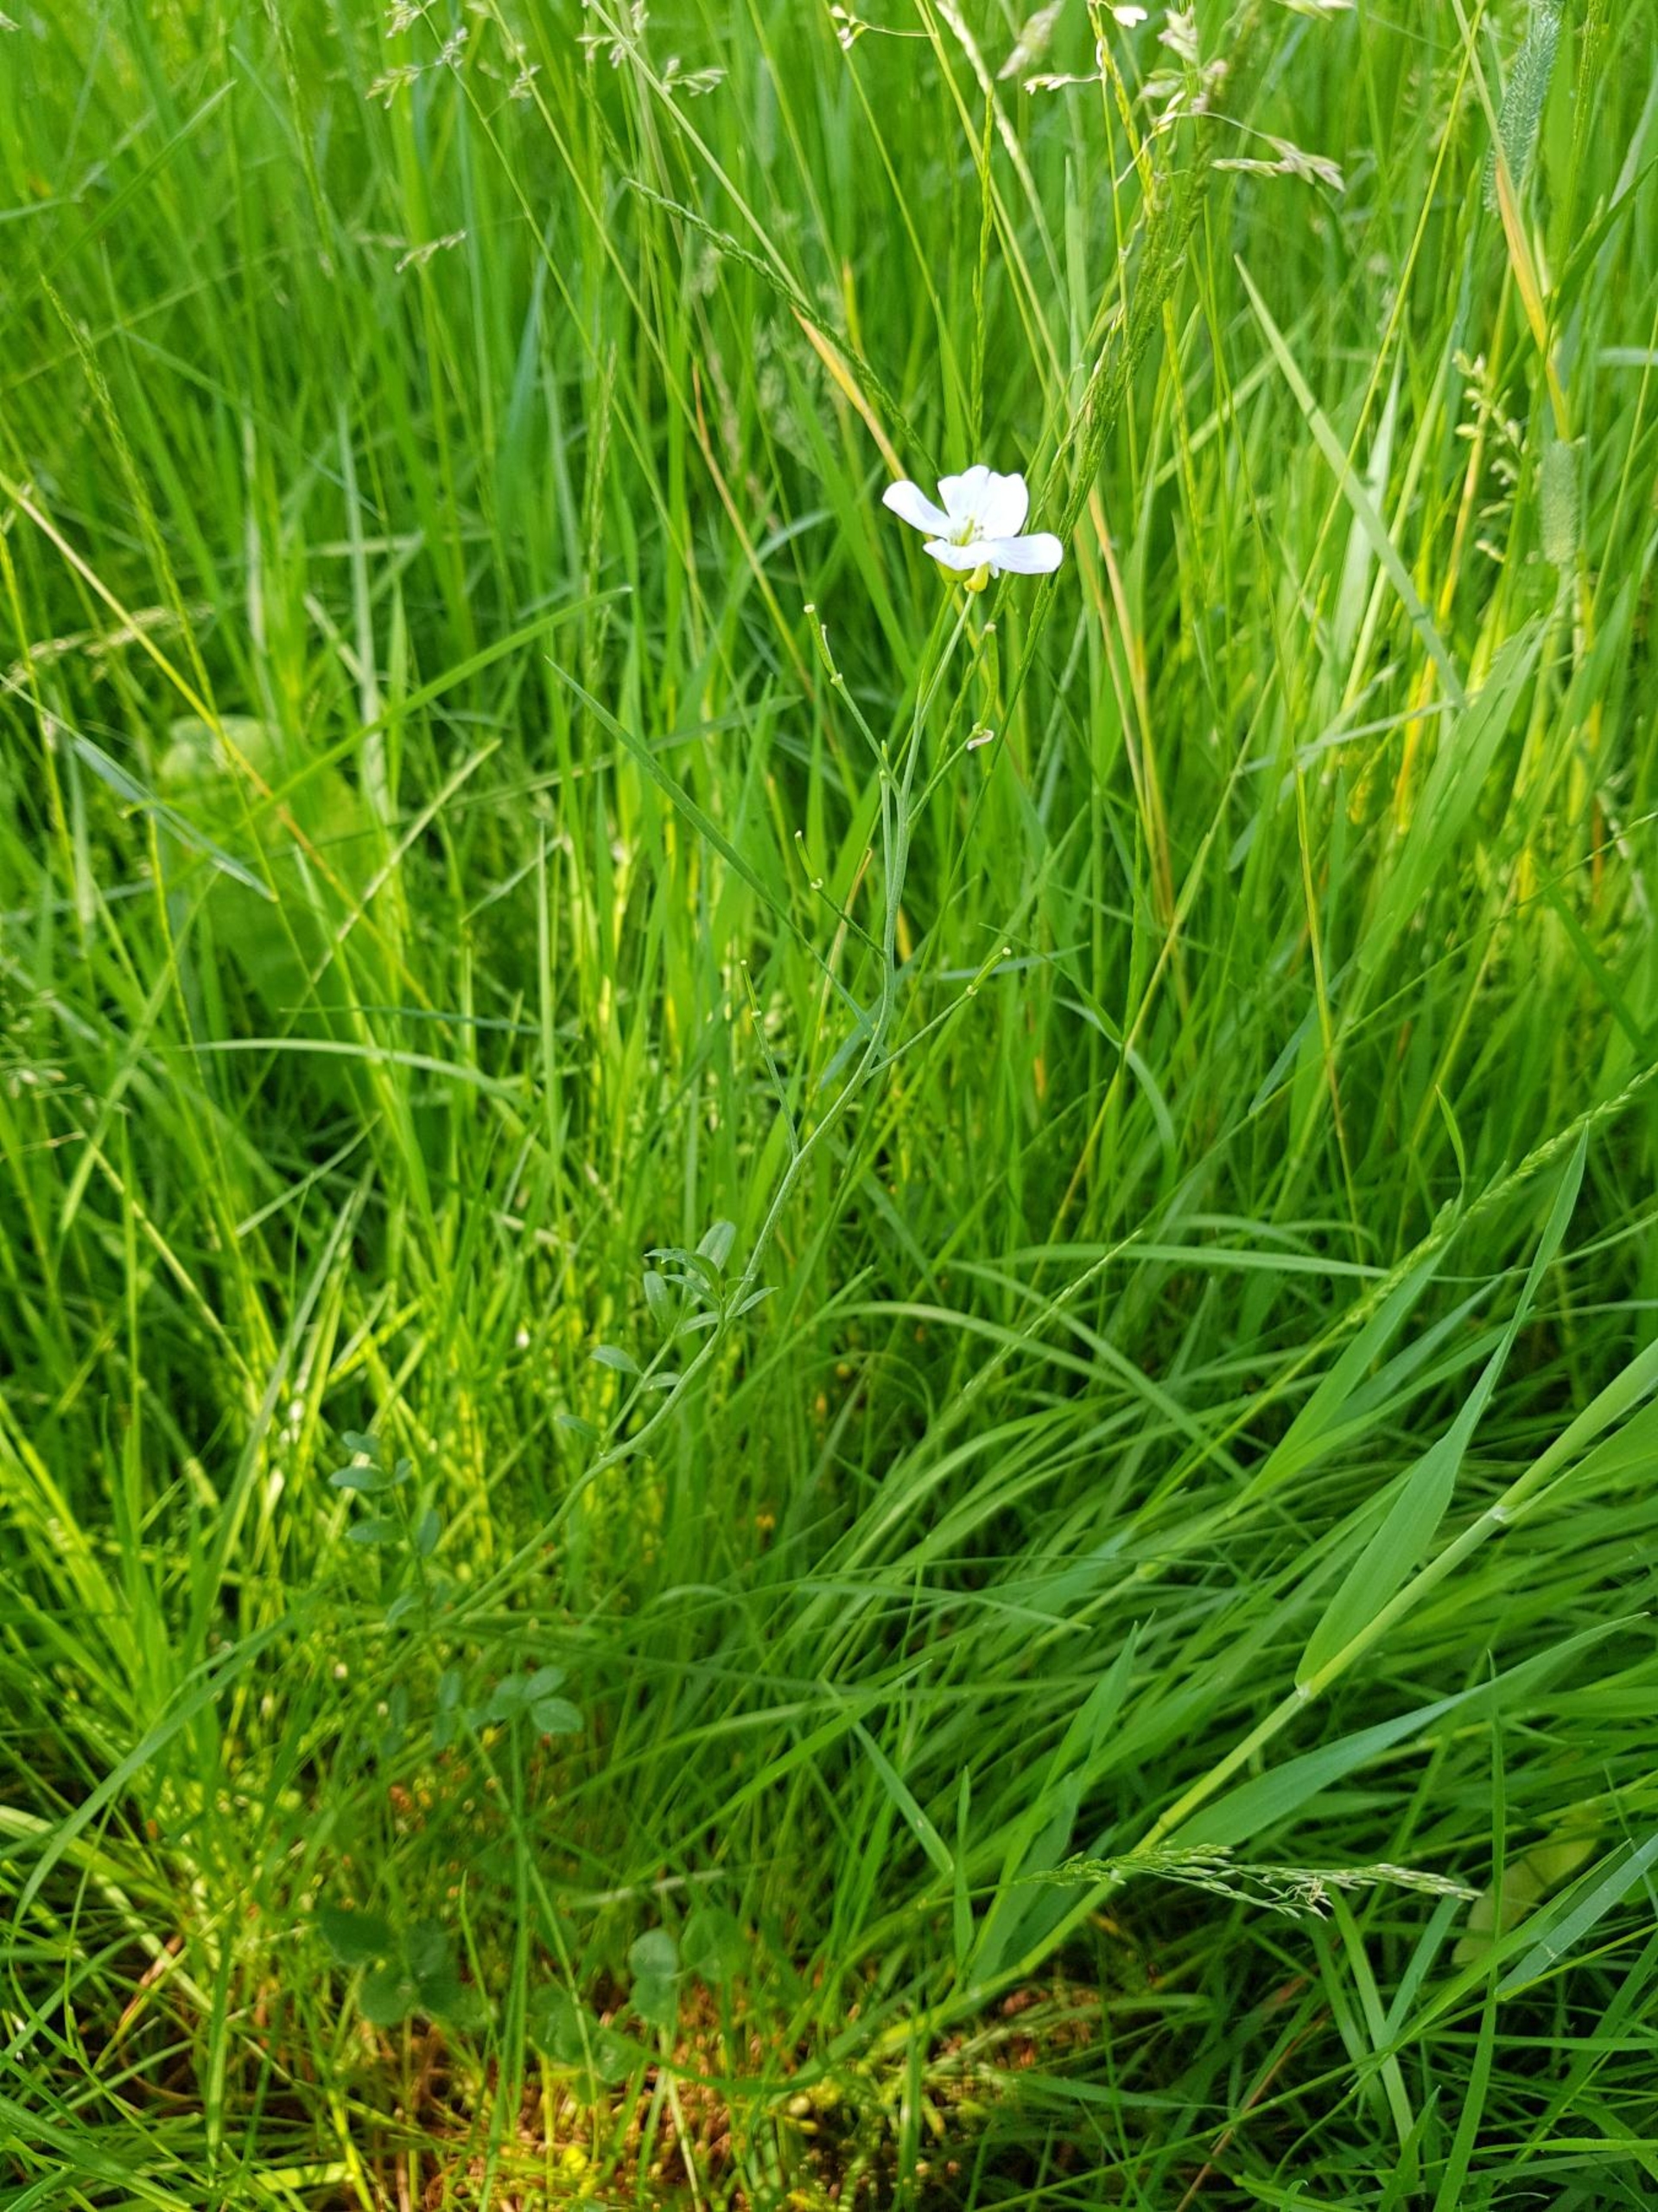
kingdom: Plantae
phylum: Tracheophyta
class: Magnoliopsida
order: Brassicales
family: Brassicaceae
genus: Cardamine
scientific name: Cardamine pratensis
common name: Engkarse
